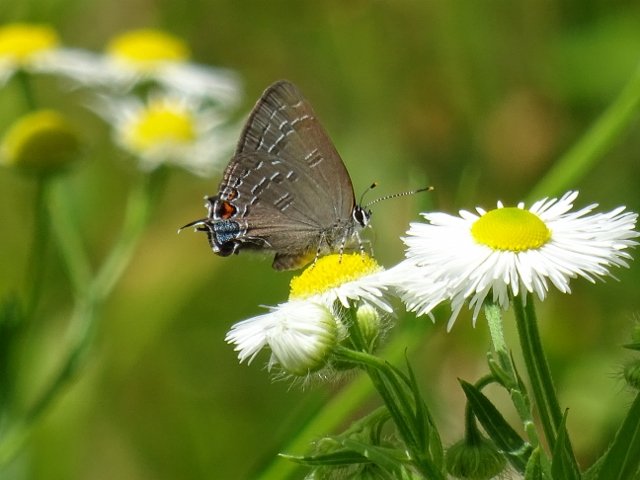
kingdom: Animalia
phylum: Arthropoda
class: Insecta
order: Lepidoptera
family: Lycaenidae
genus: Satyrium
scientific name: Satyrium calanus
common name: Banded Hairstreak
